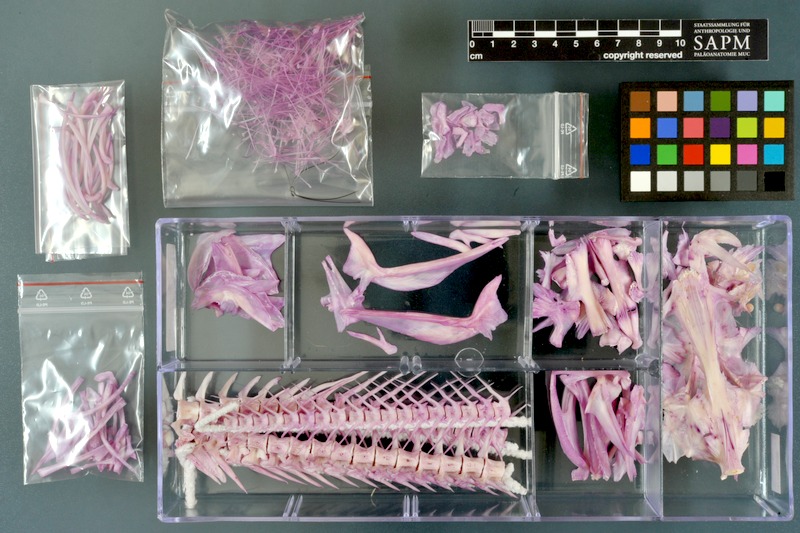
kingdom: Animalia
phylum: Chordata
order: Gadiformes
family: Lotidae
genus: Lota
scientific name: Lota lota
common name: Burbot
